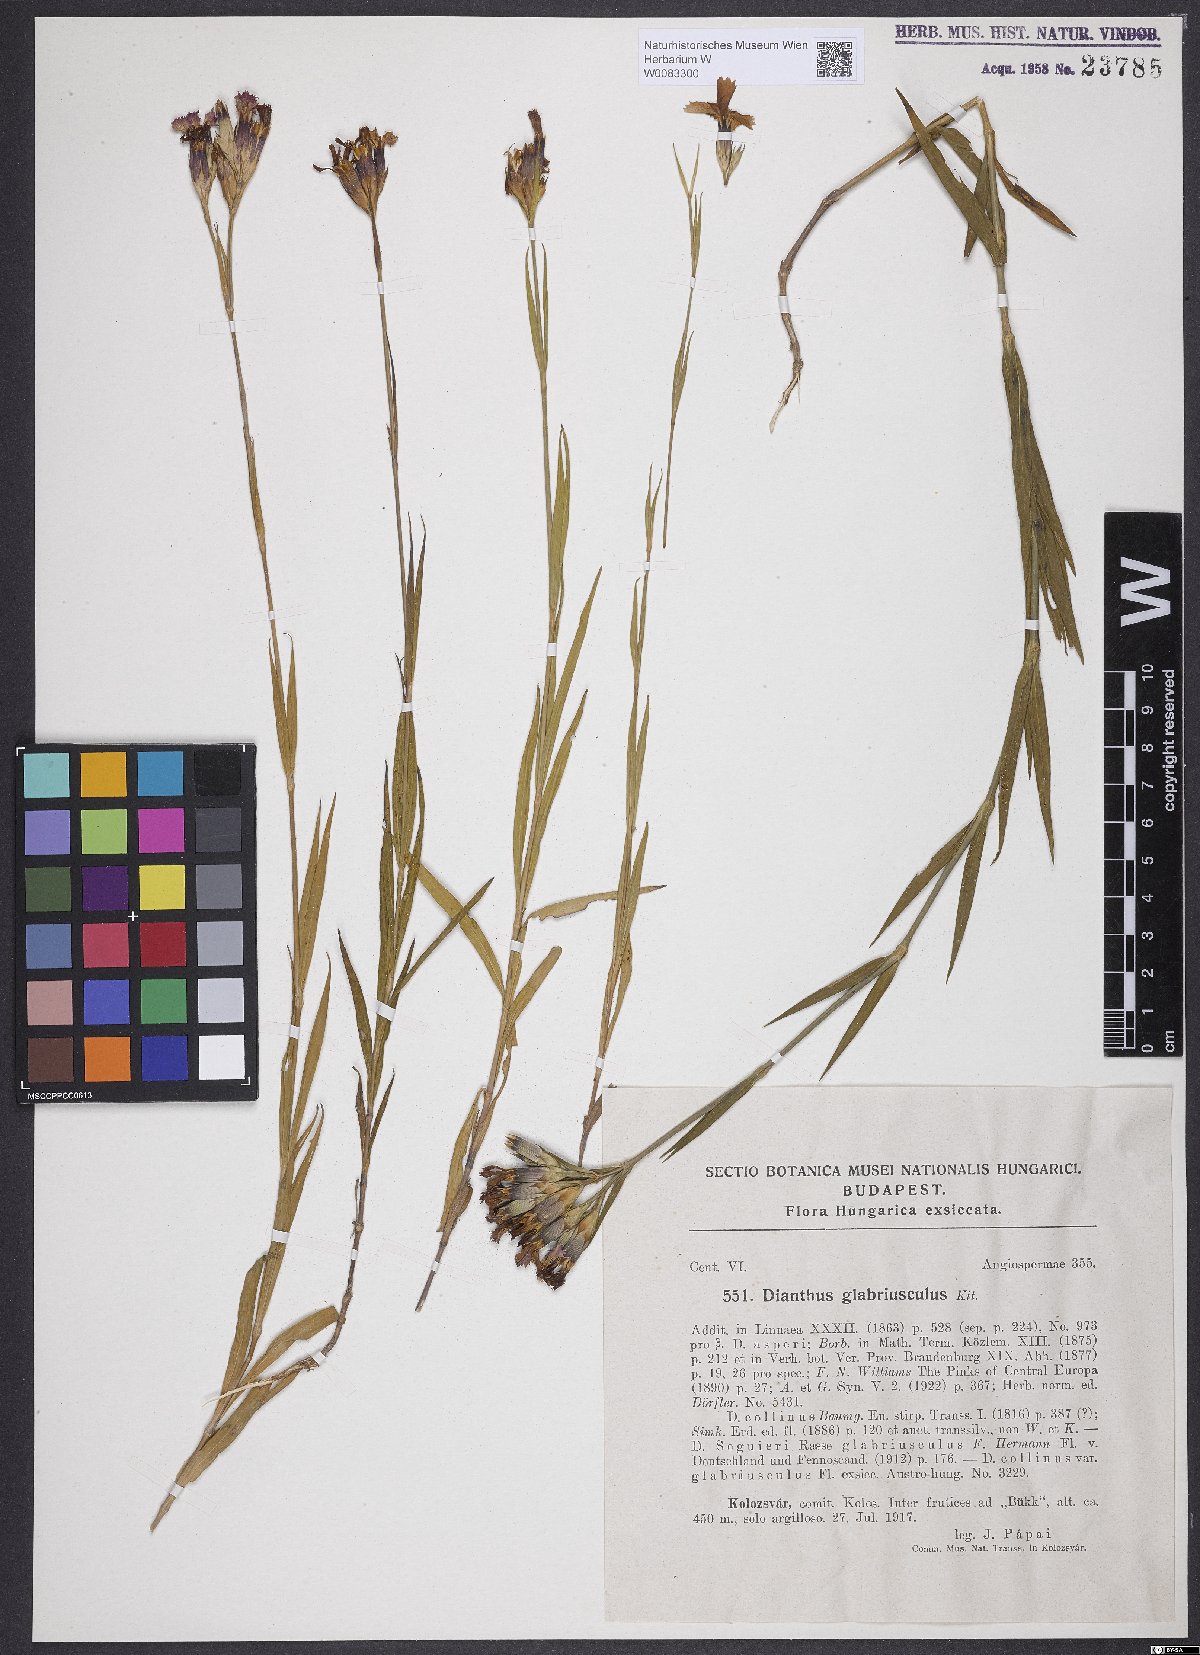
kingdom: Plantae
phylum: Tracheophyta
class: Magnoliopsida
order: Caryophyllales
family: Caryophyllaceae
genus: Dianthus
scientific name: Dianthus collinus
